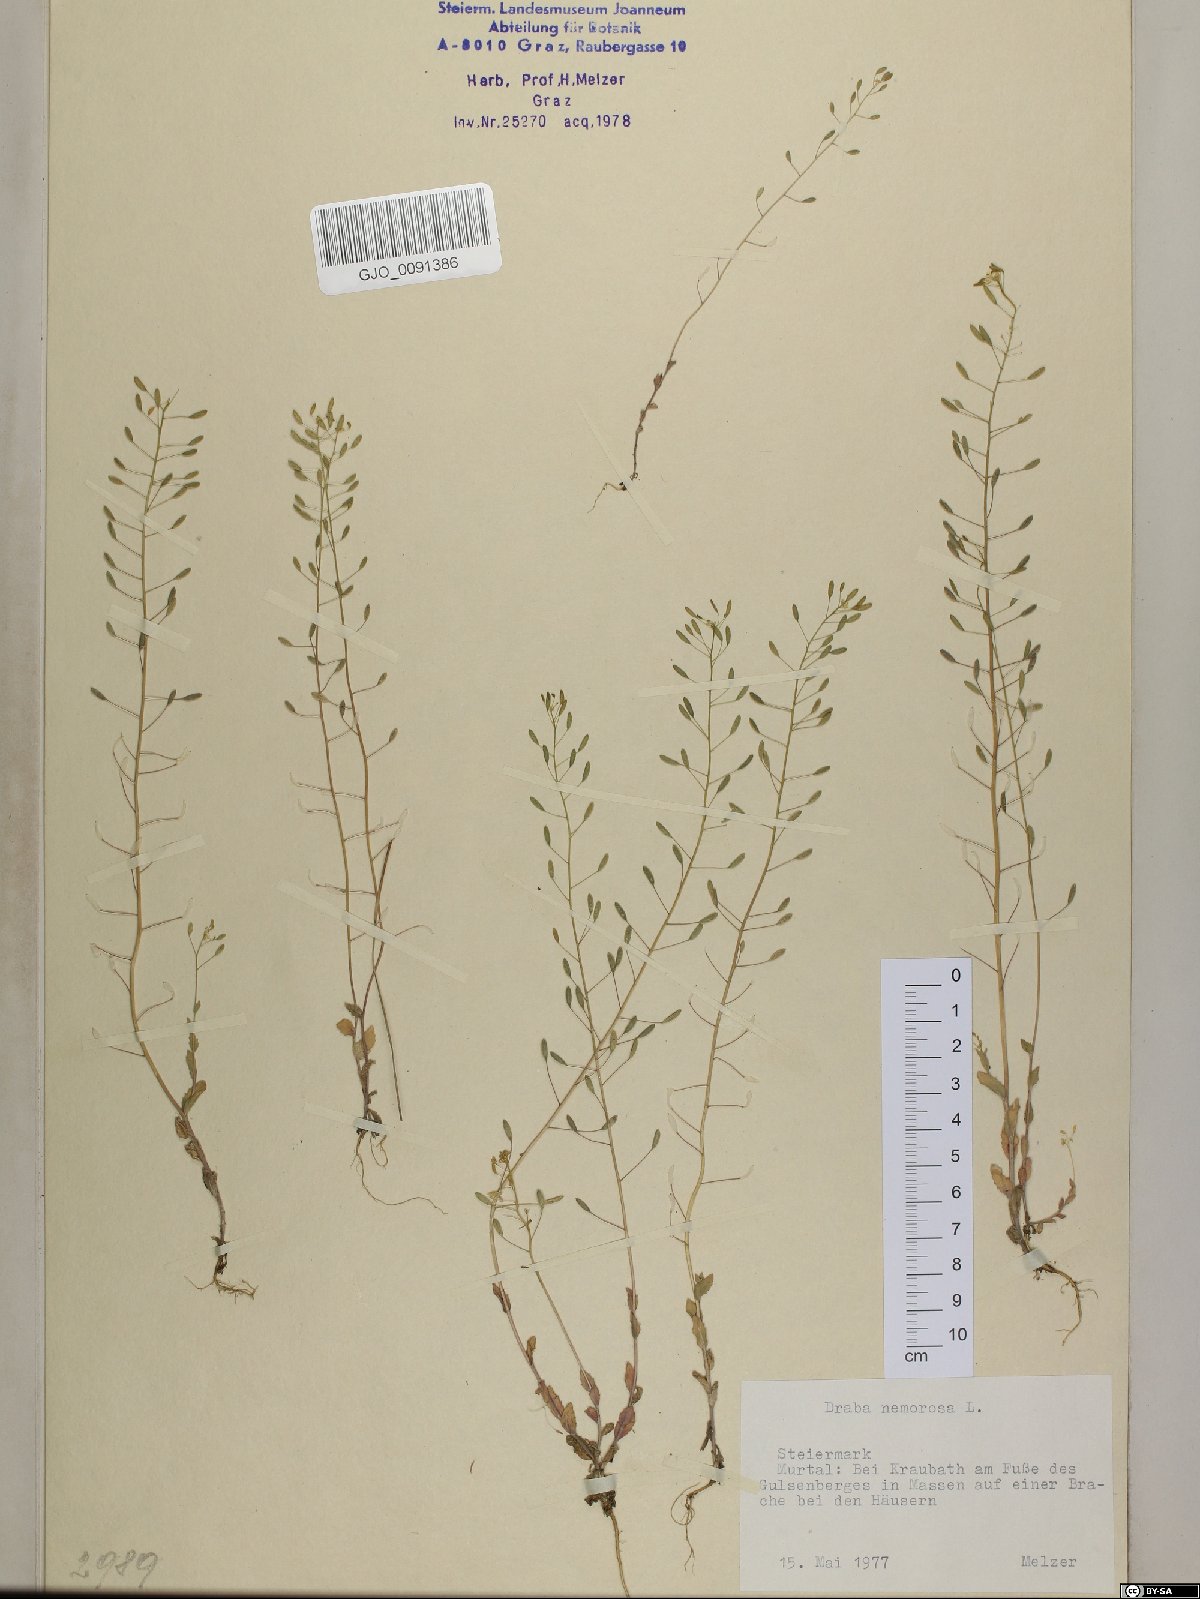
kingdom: Plantae
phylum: Tracheophyta
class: Magnoliopsida
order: Brassicales
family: Brassicaceae
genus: Draba
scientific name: Draba nemorosa
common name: Wood whitlow-grass
